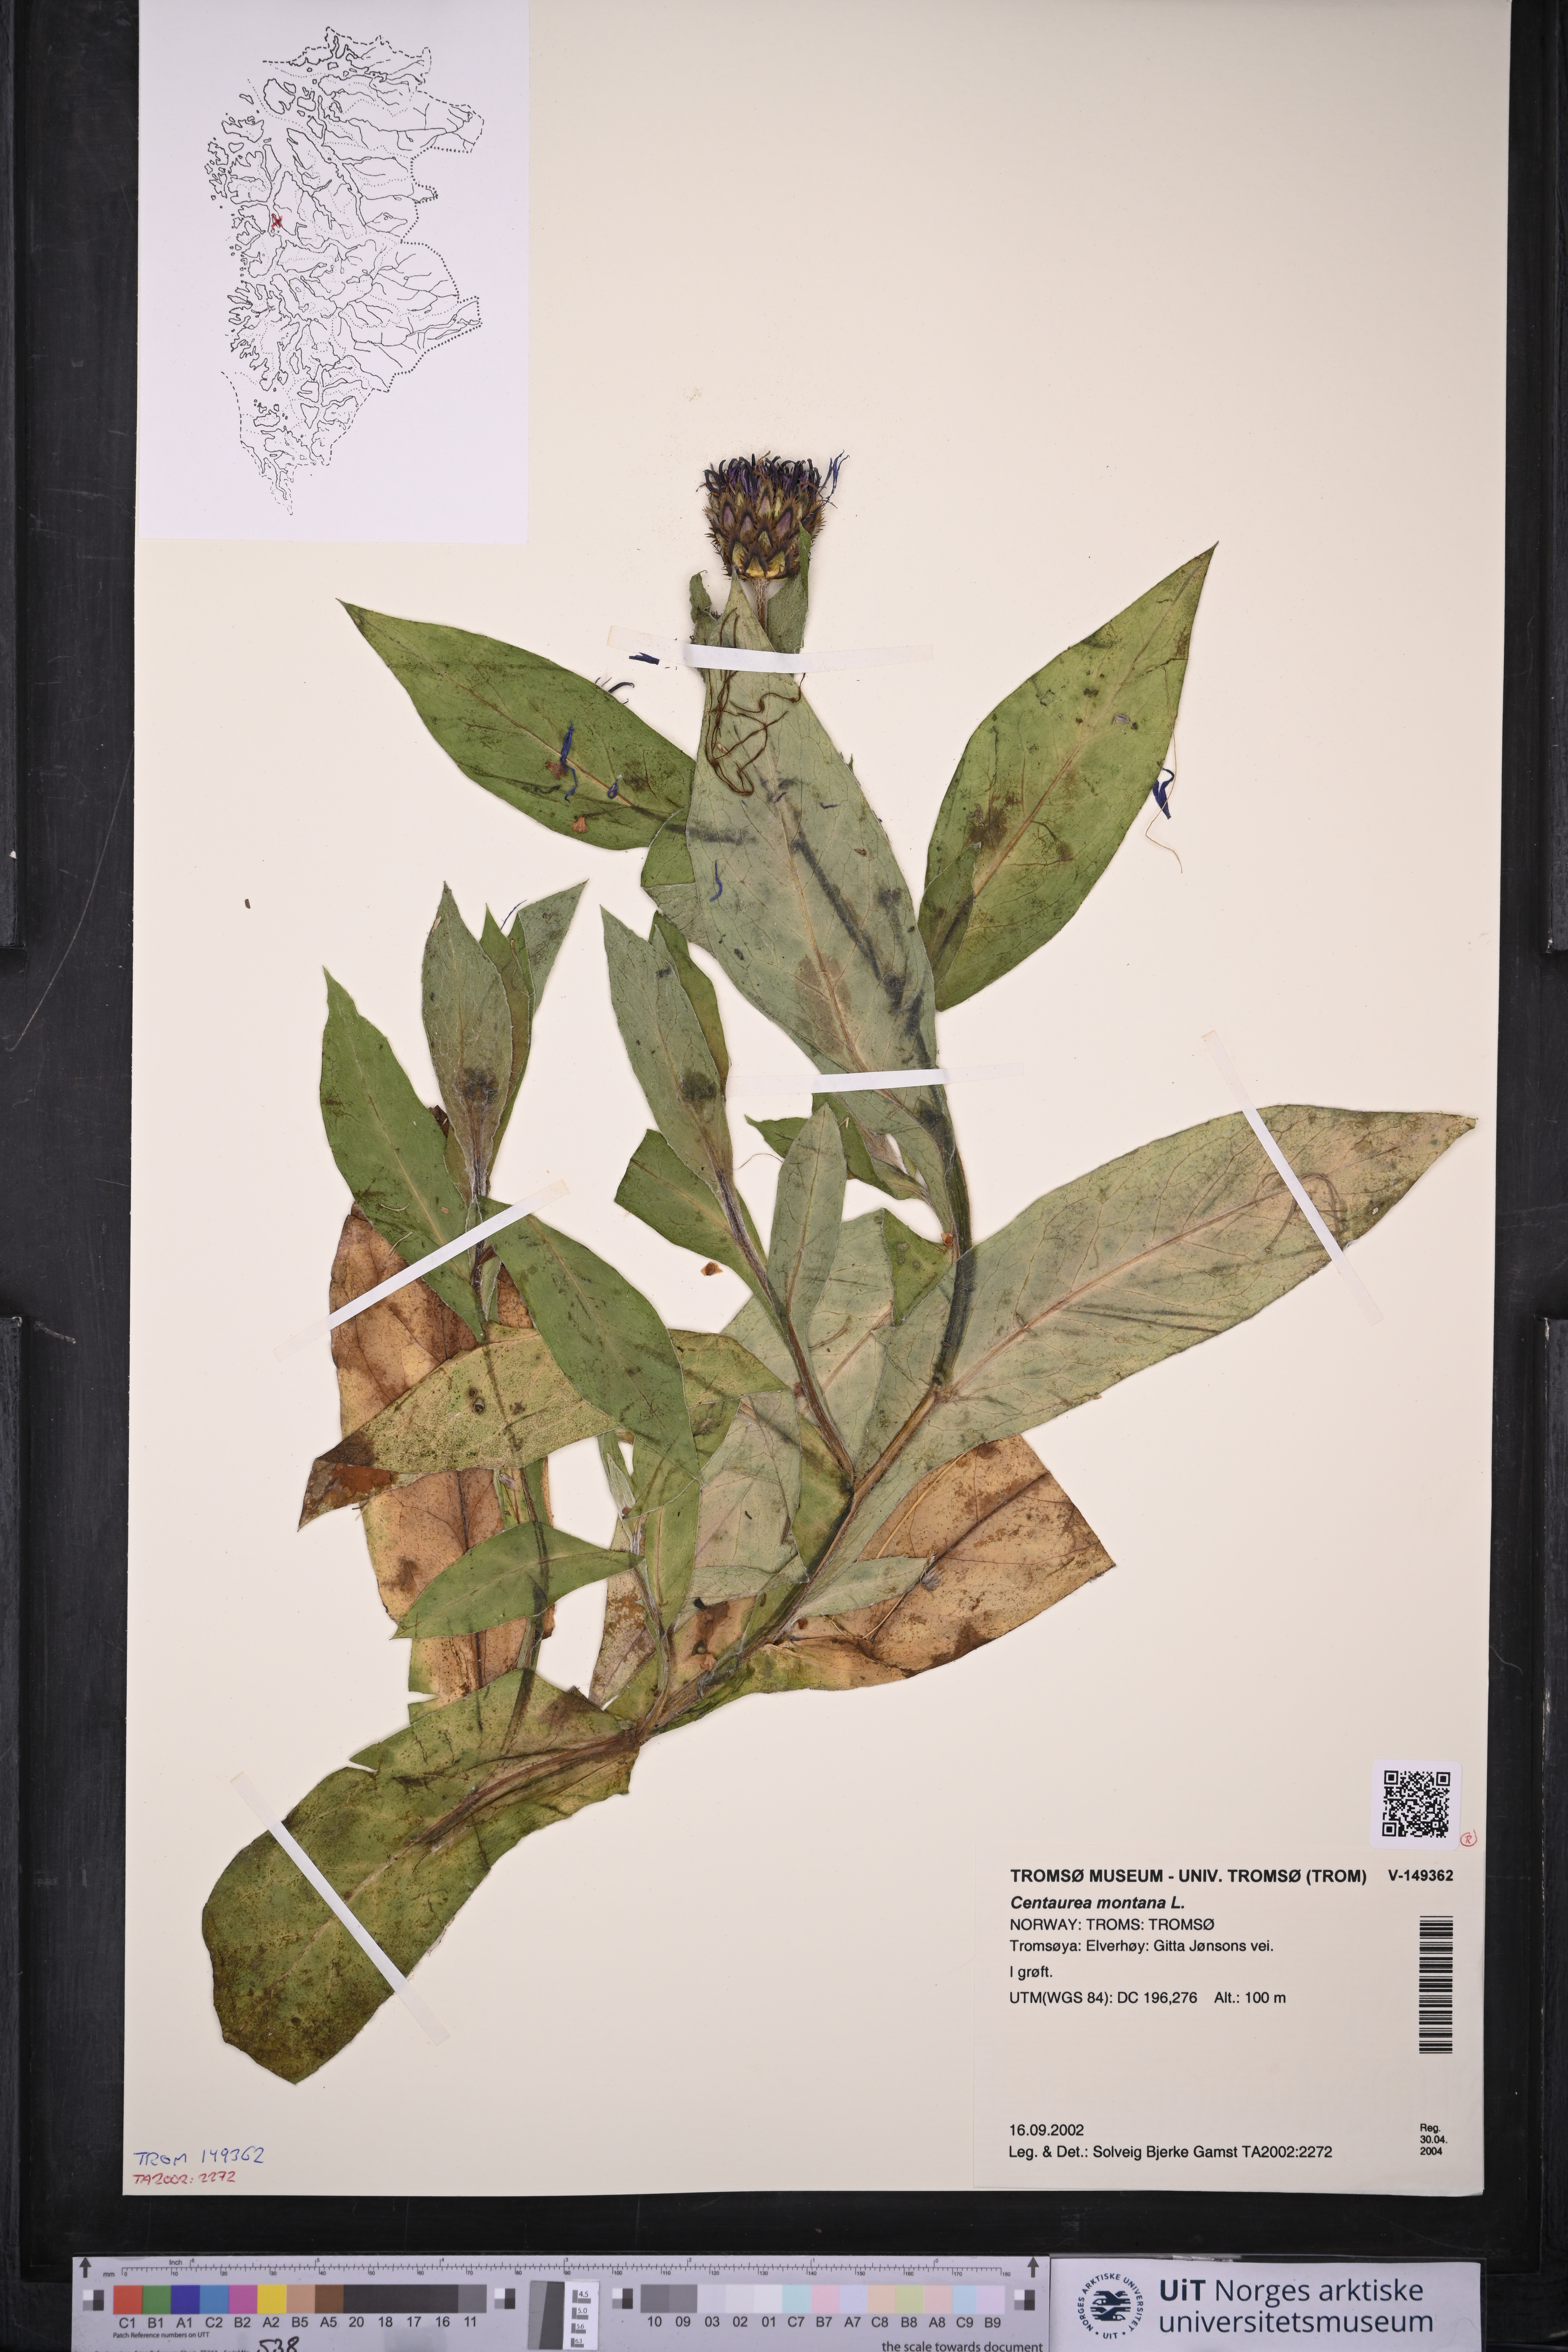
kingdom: Plantae
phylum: Tracheophyta
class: Magnoliopsida
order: Asterales
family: Asteraceae
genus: Centaurea
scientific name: Centaurea montana
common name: Perennial cornflower
